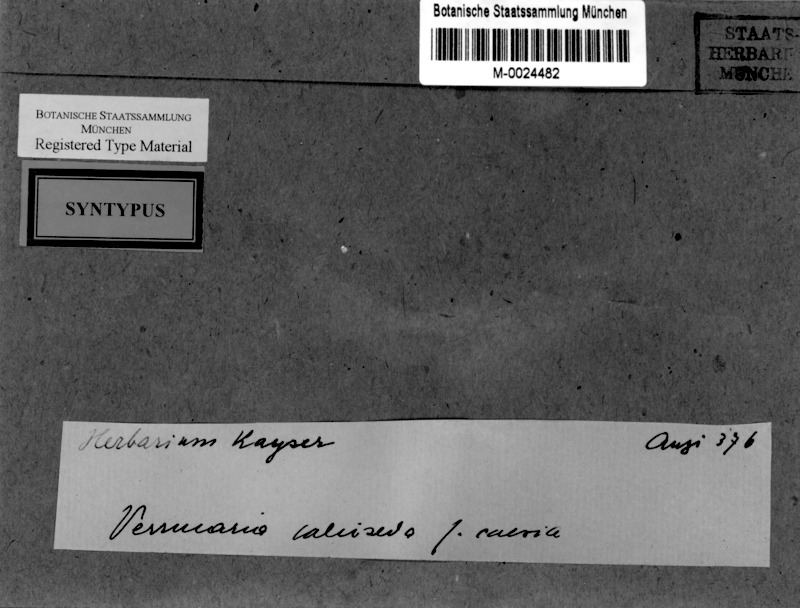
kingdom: Fungi
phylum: Ascomycota
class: Eurotiomycetes
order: Verrucariales
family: Verrucariaceae
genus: Bagliettoa
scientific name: Bagliettoa baldensis
